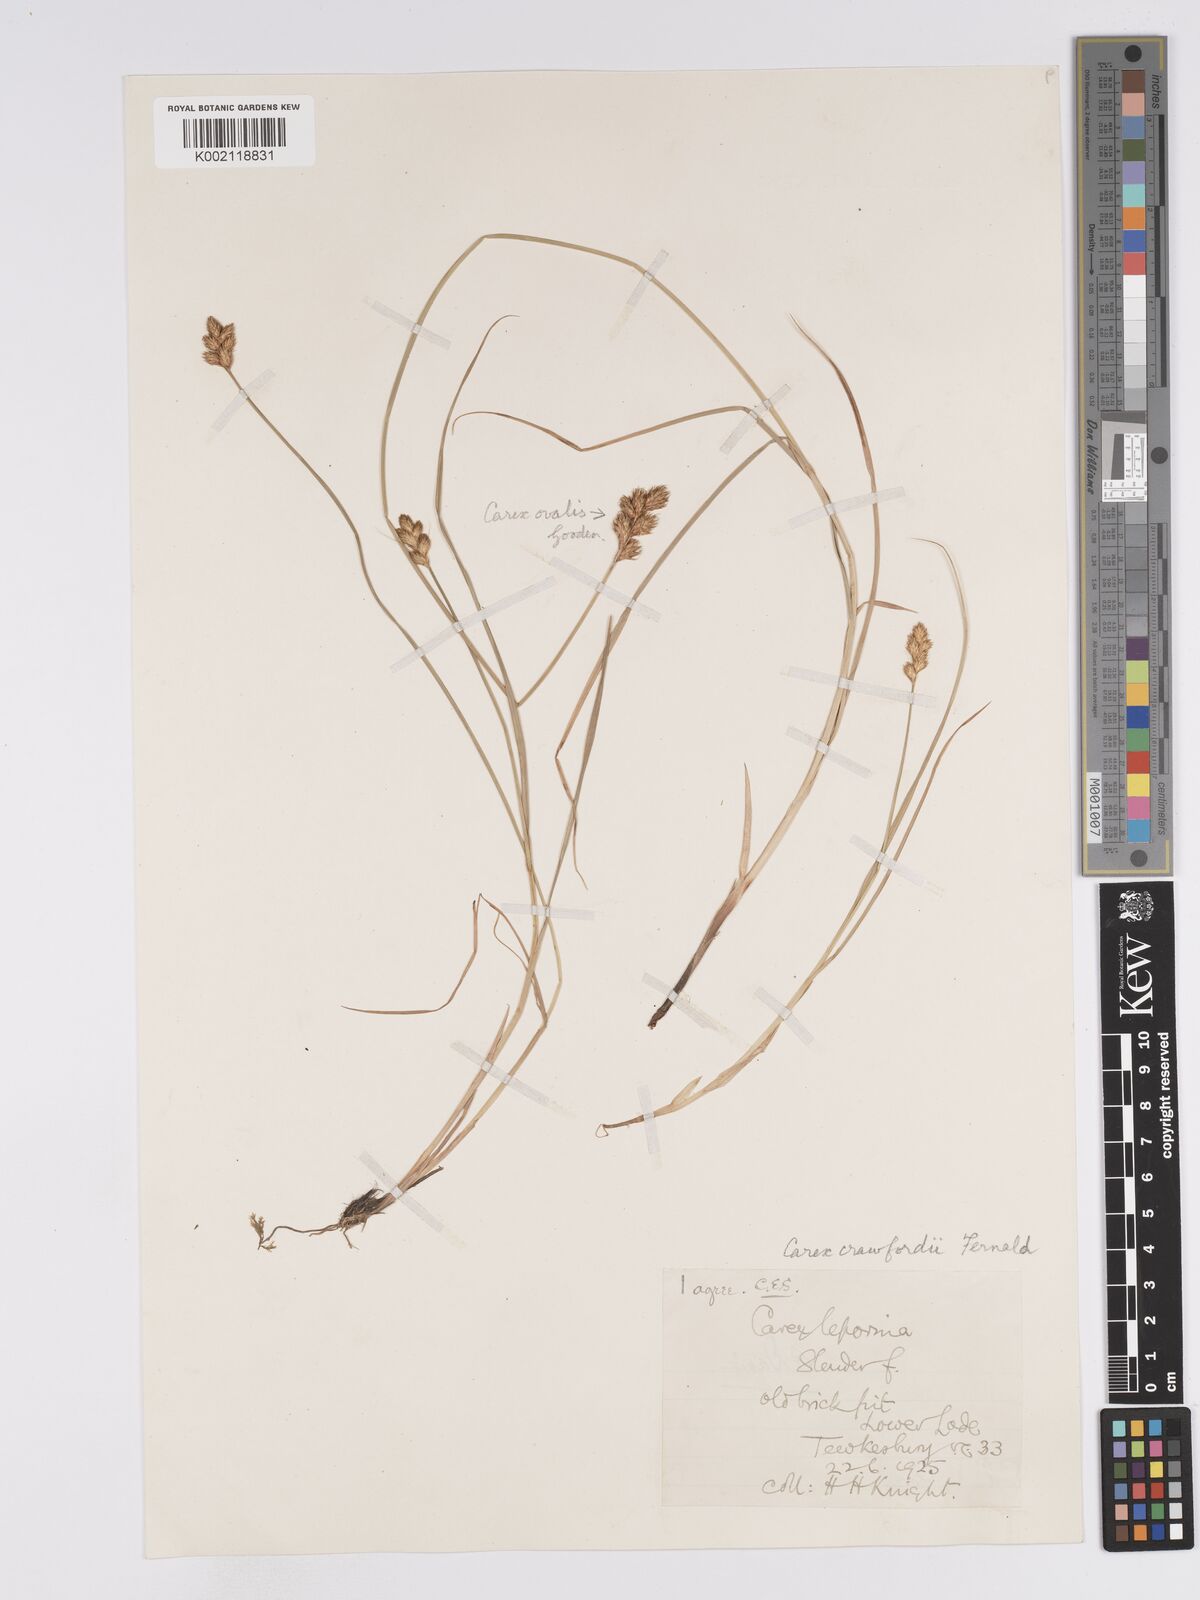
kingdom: Plantae
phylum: Tracheophyta
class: Liliopsida
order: Poales
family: Cyperaceae
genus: Carex
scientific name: Carex crawfordii
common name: Crawford's sedge
